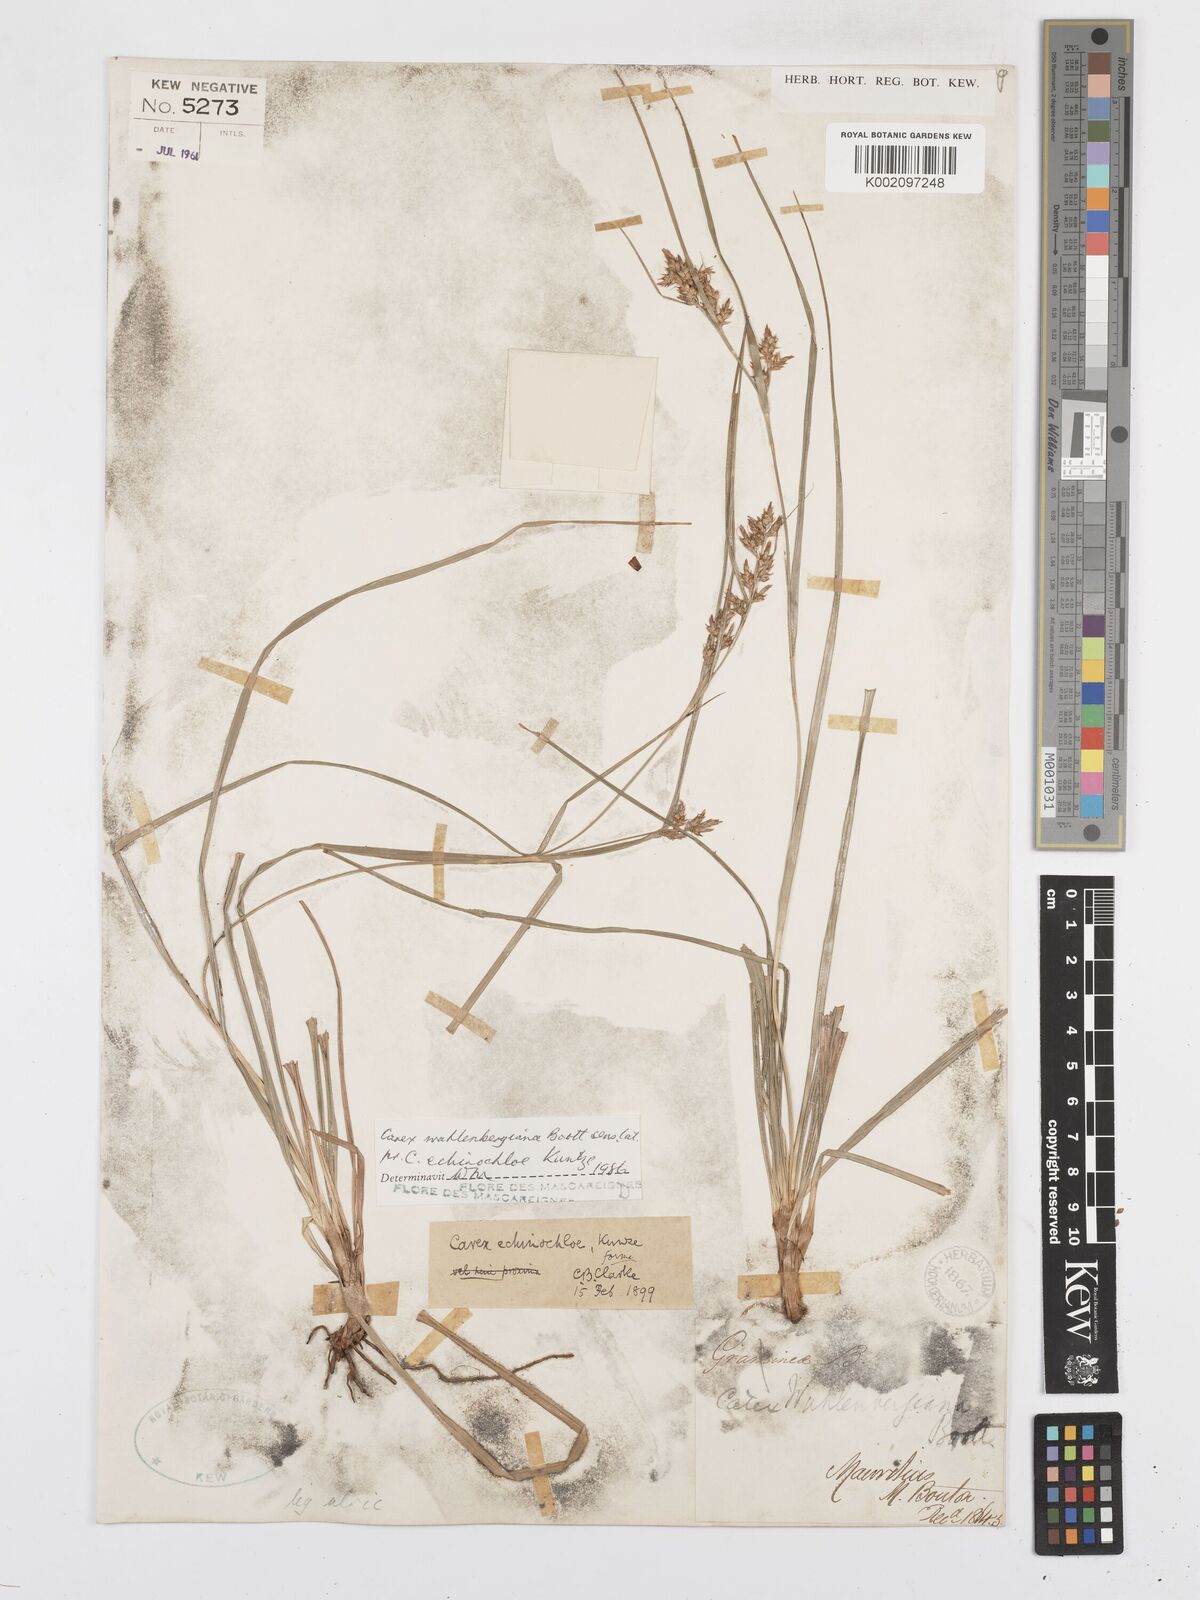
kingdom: Plantae
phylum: Tracheophyta
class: Liliopsida
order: Poales
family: Cyperaceae
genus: Carex
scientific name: Carex wahlenbergiana
